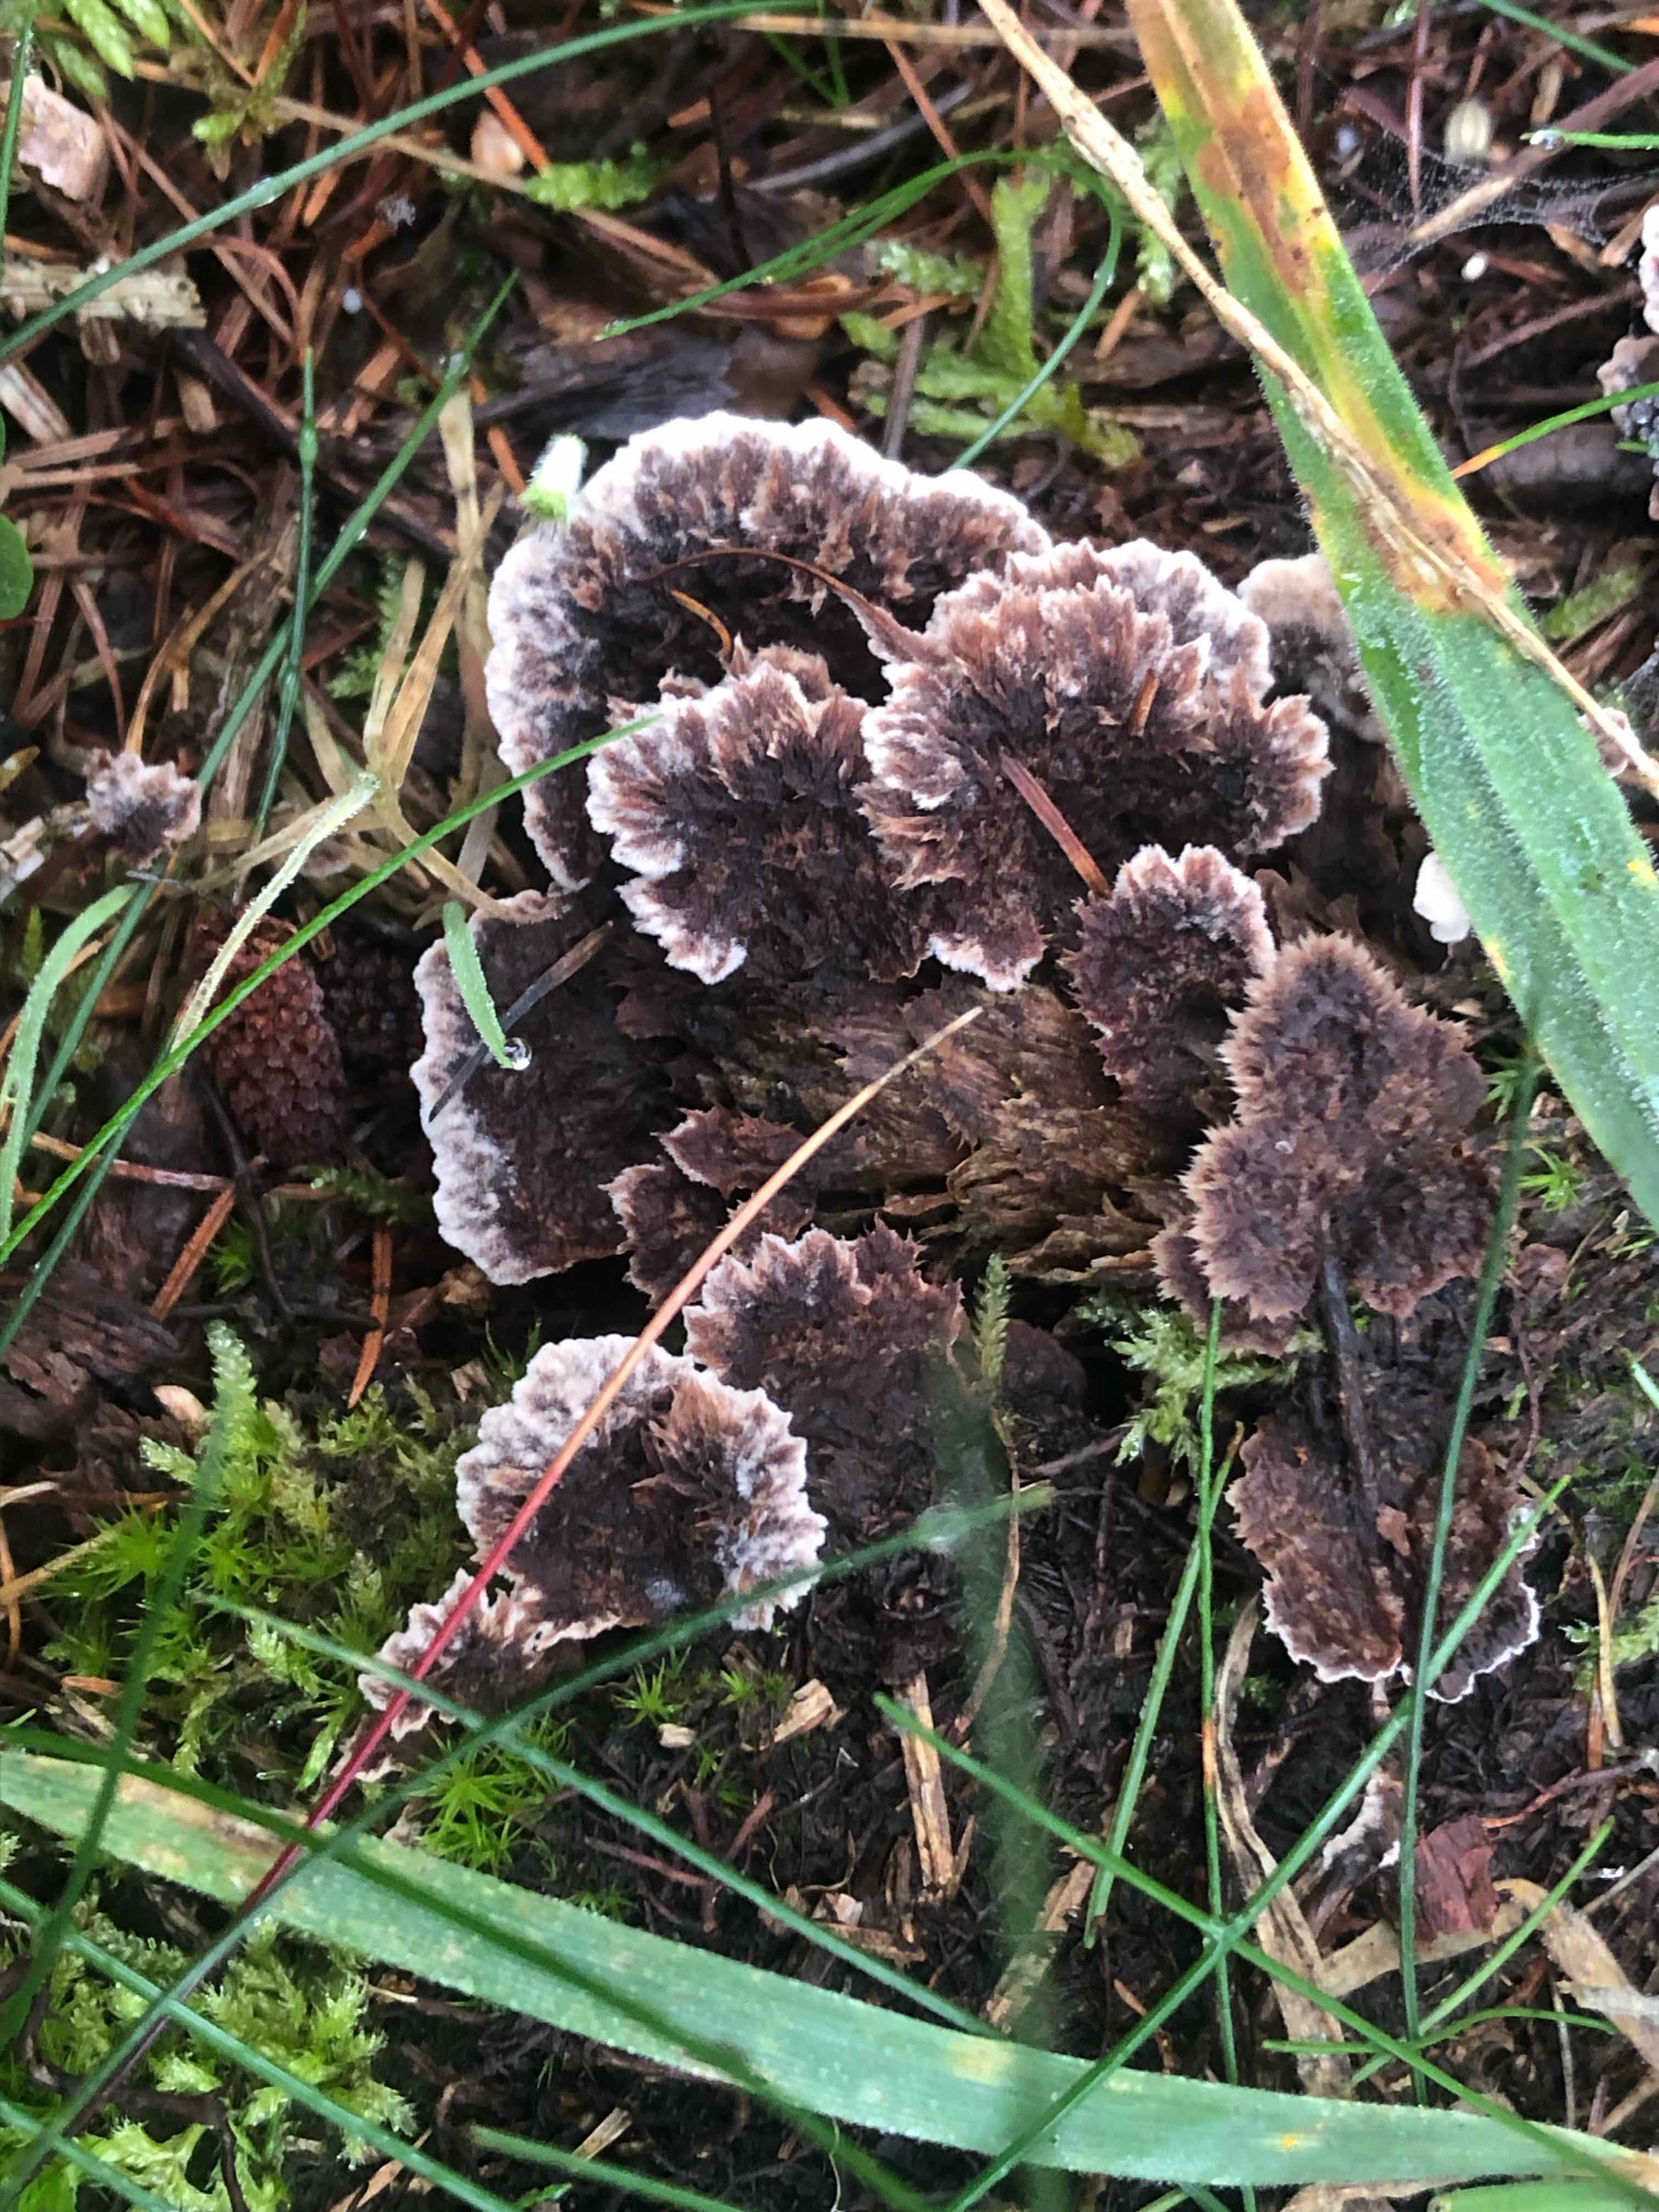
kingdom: Fungi
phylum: Basidiomycota
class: Agaricomycetes
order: Thelephorales
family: Thelephoraceae
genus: Thelephora
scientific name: Thelephora terrestris
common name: fliget frynsesvamp
